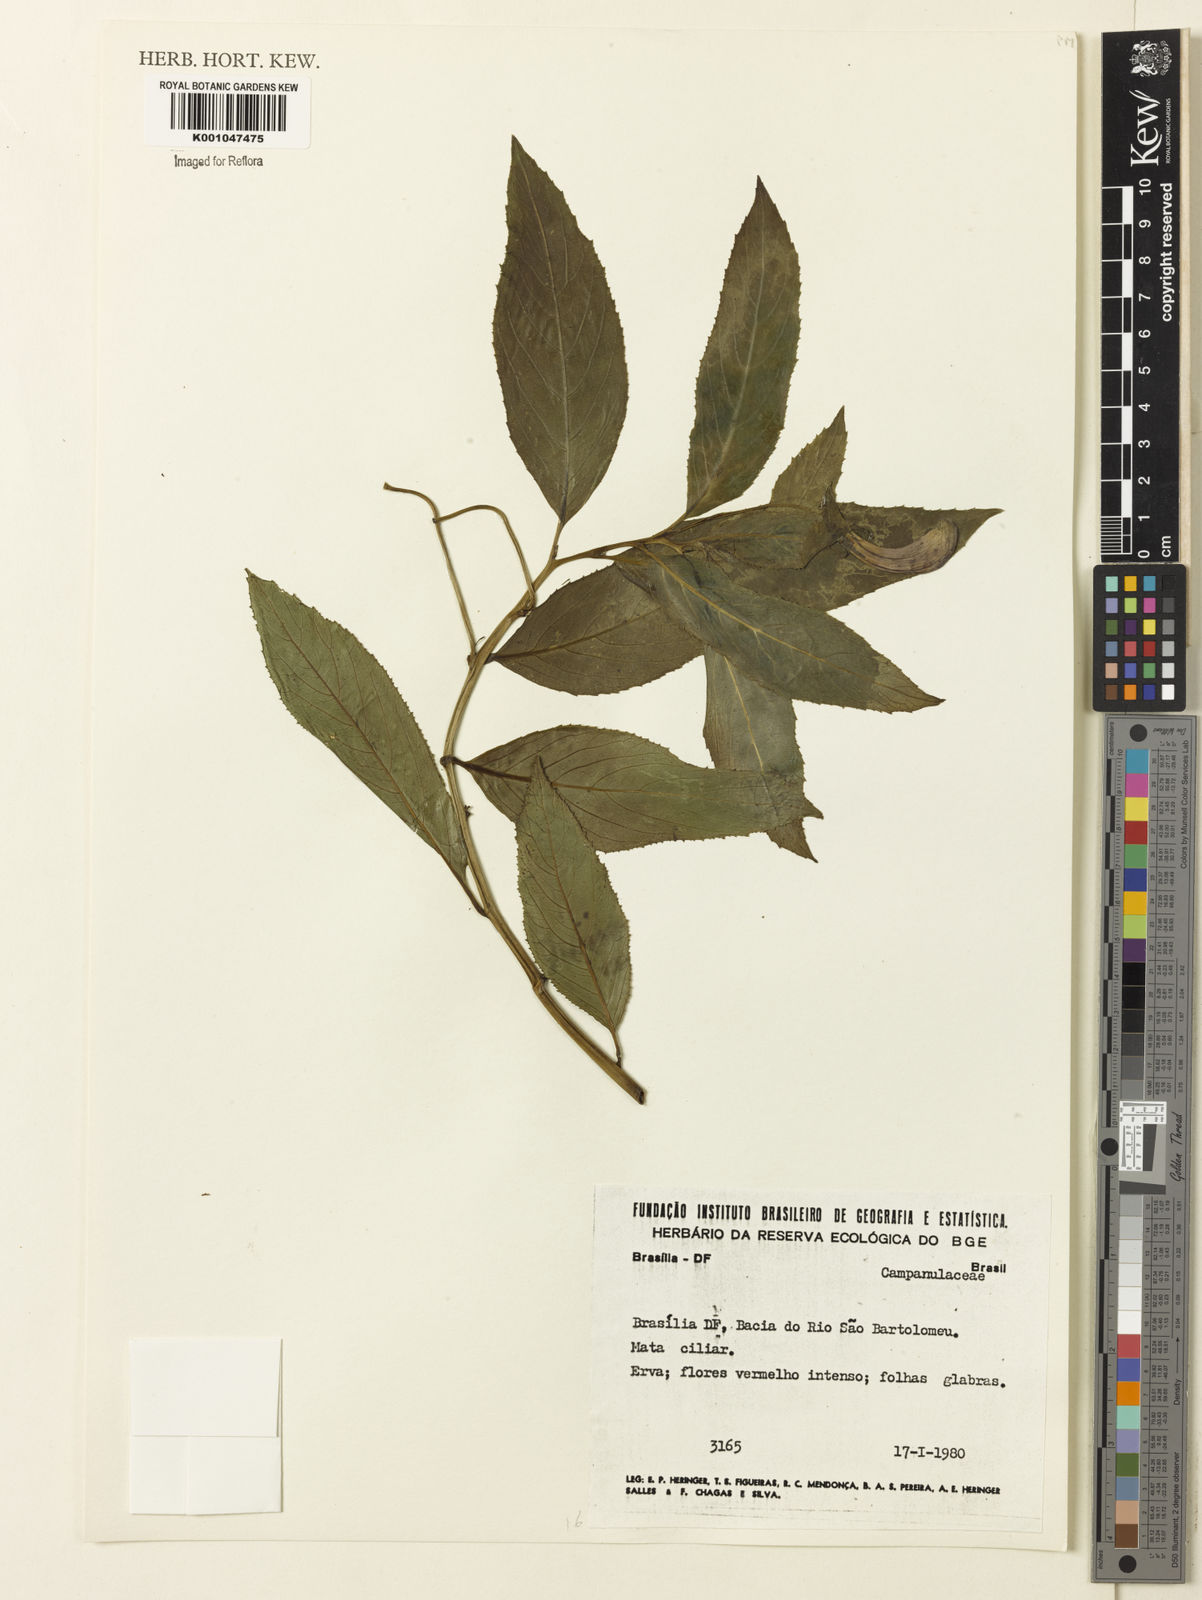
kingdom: Plantae
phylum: Tracheophyta
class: Magnoliopsida
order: Asterales
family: Campanulaceae
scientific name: Campanulaceae
